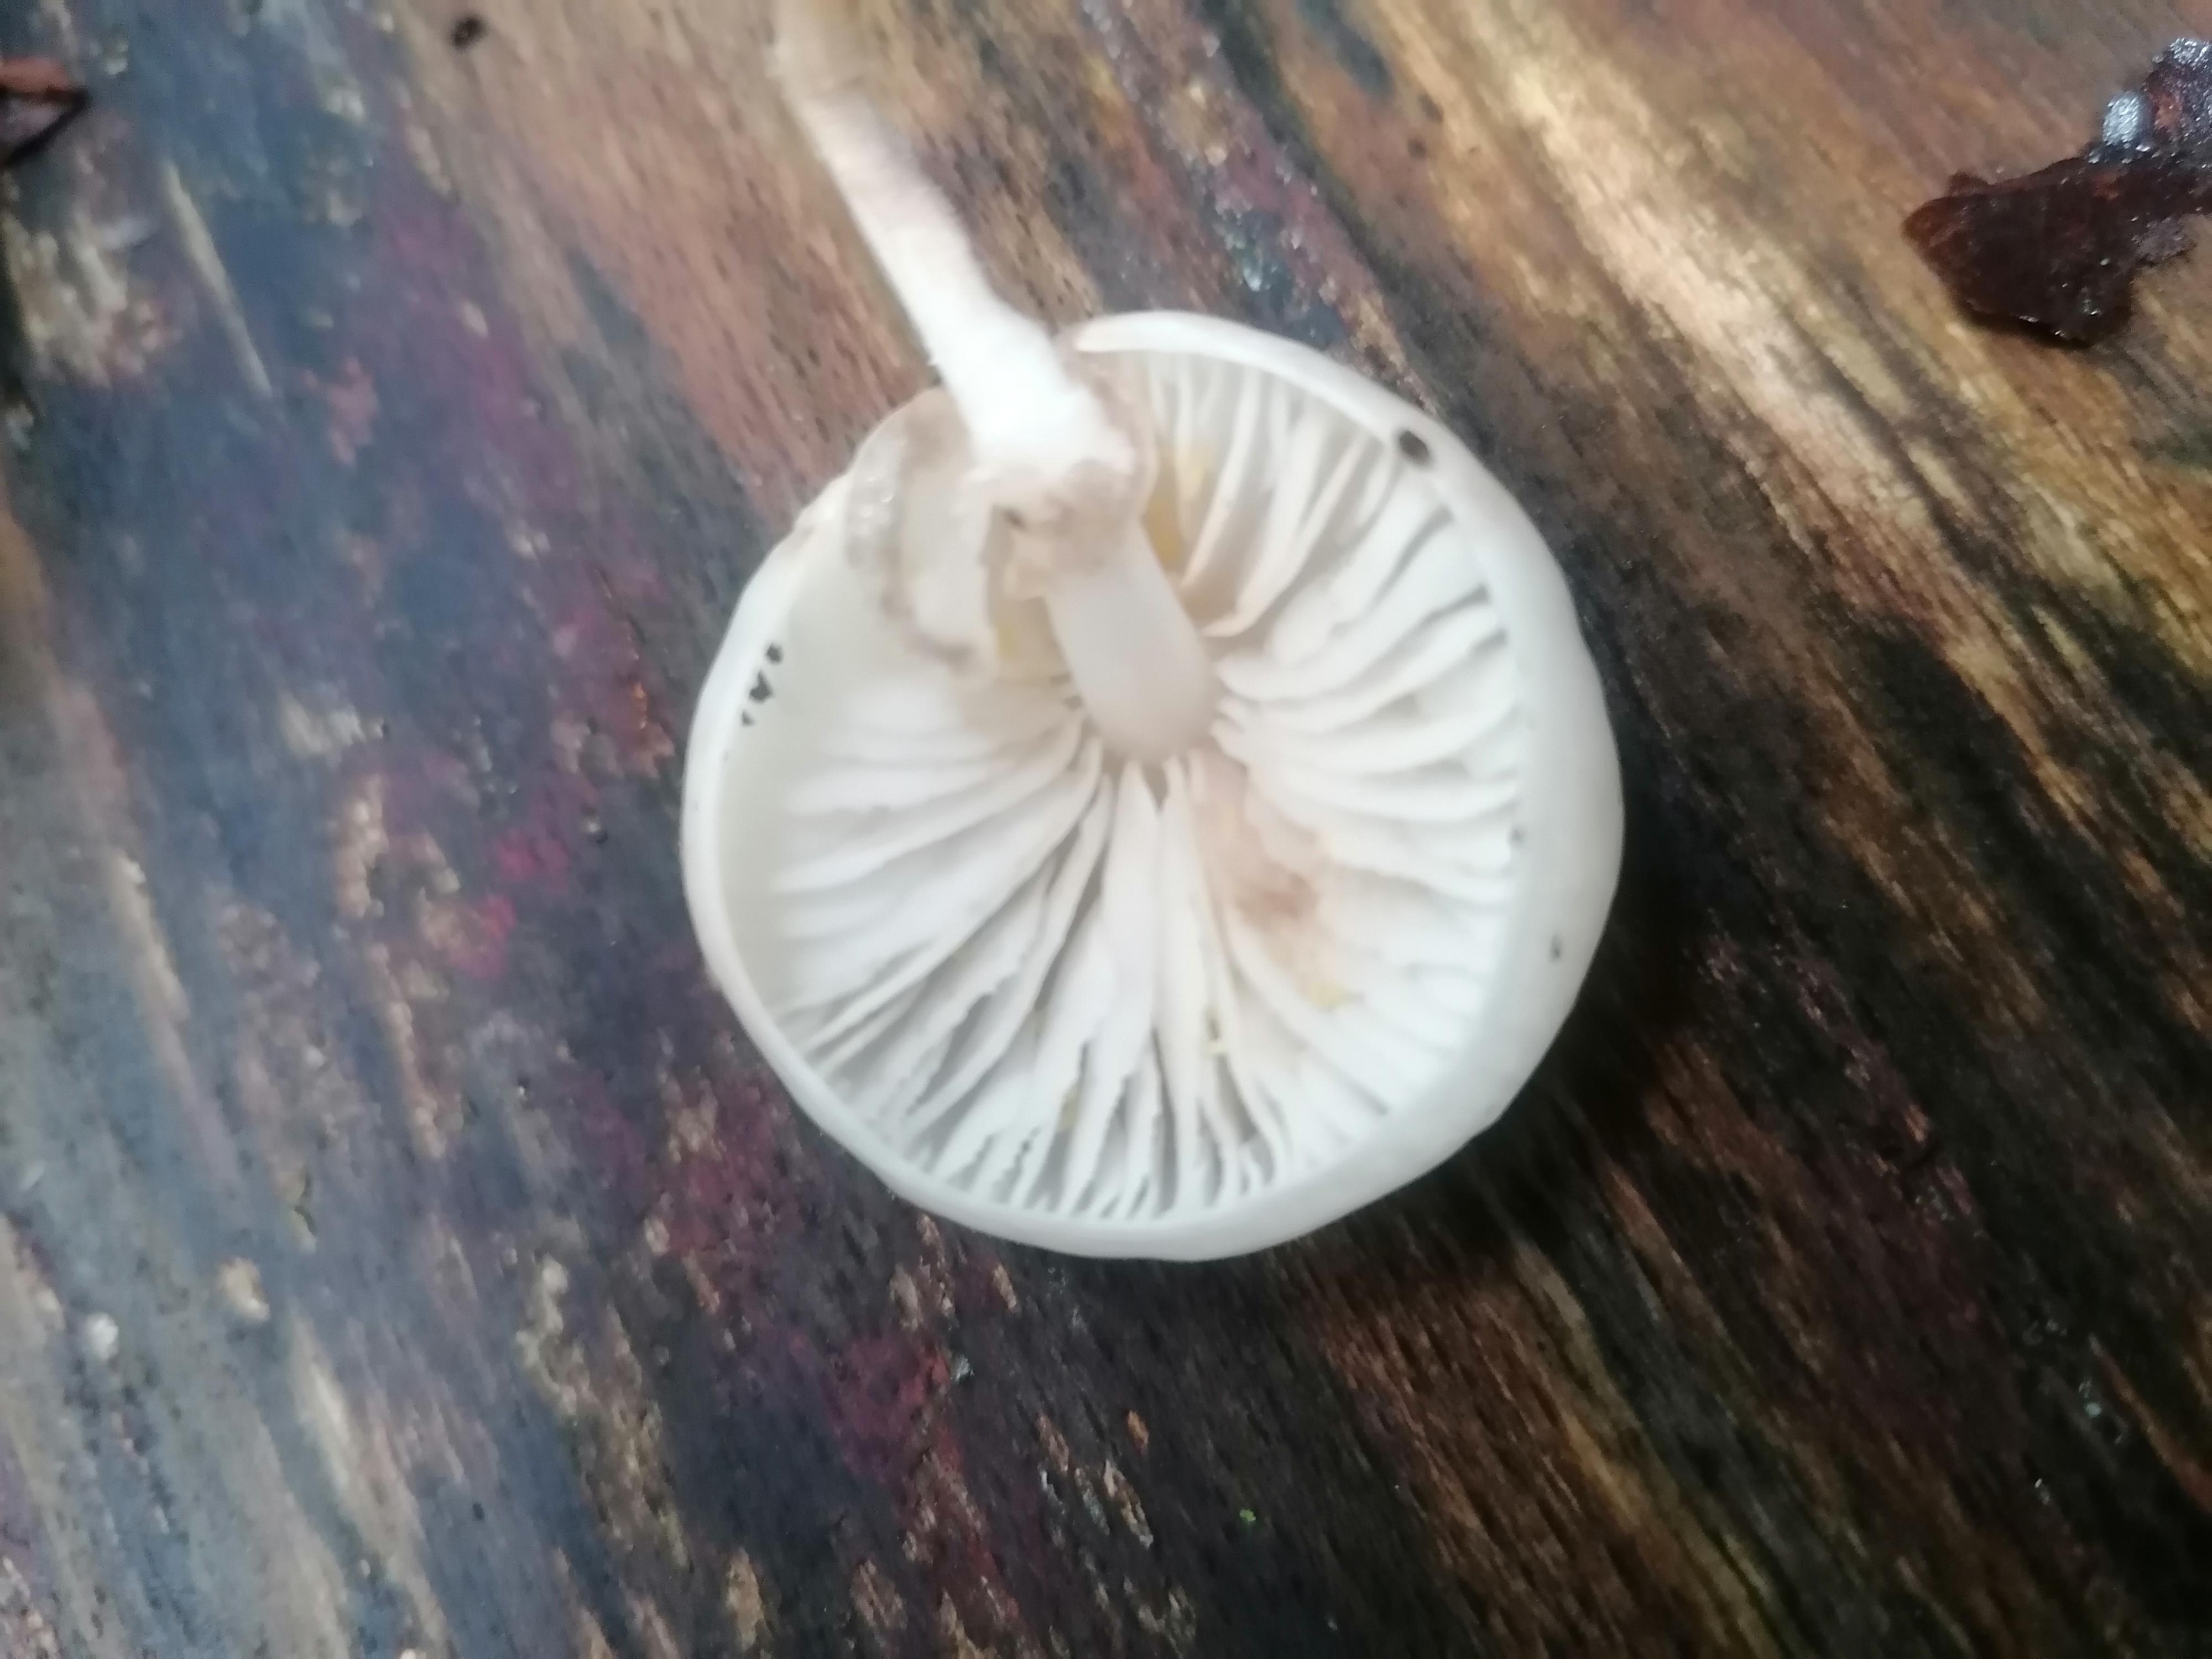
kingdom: Fungi
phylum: Basidiomycota
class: Agaricomycetes
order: Agaricales
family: Physalacriaceae
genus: Mucidula
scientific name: Mucidula mucida
